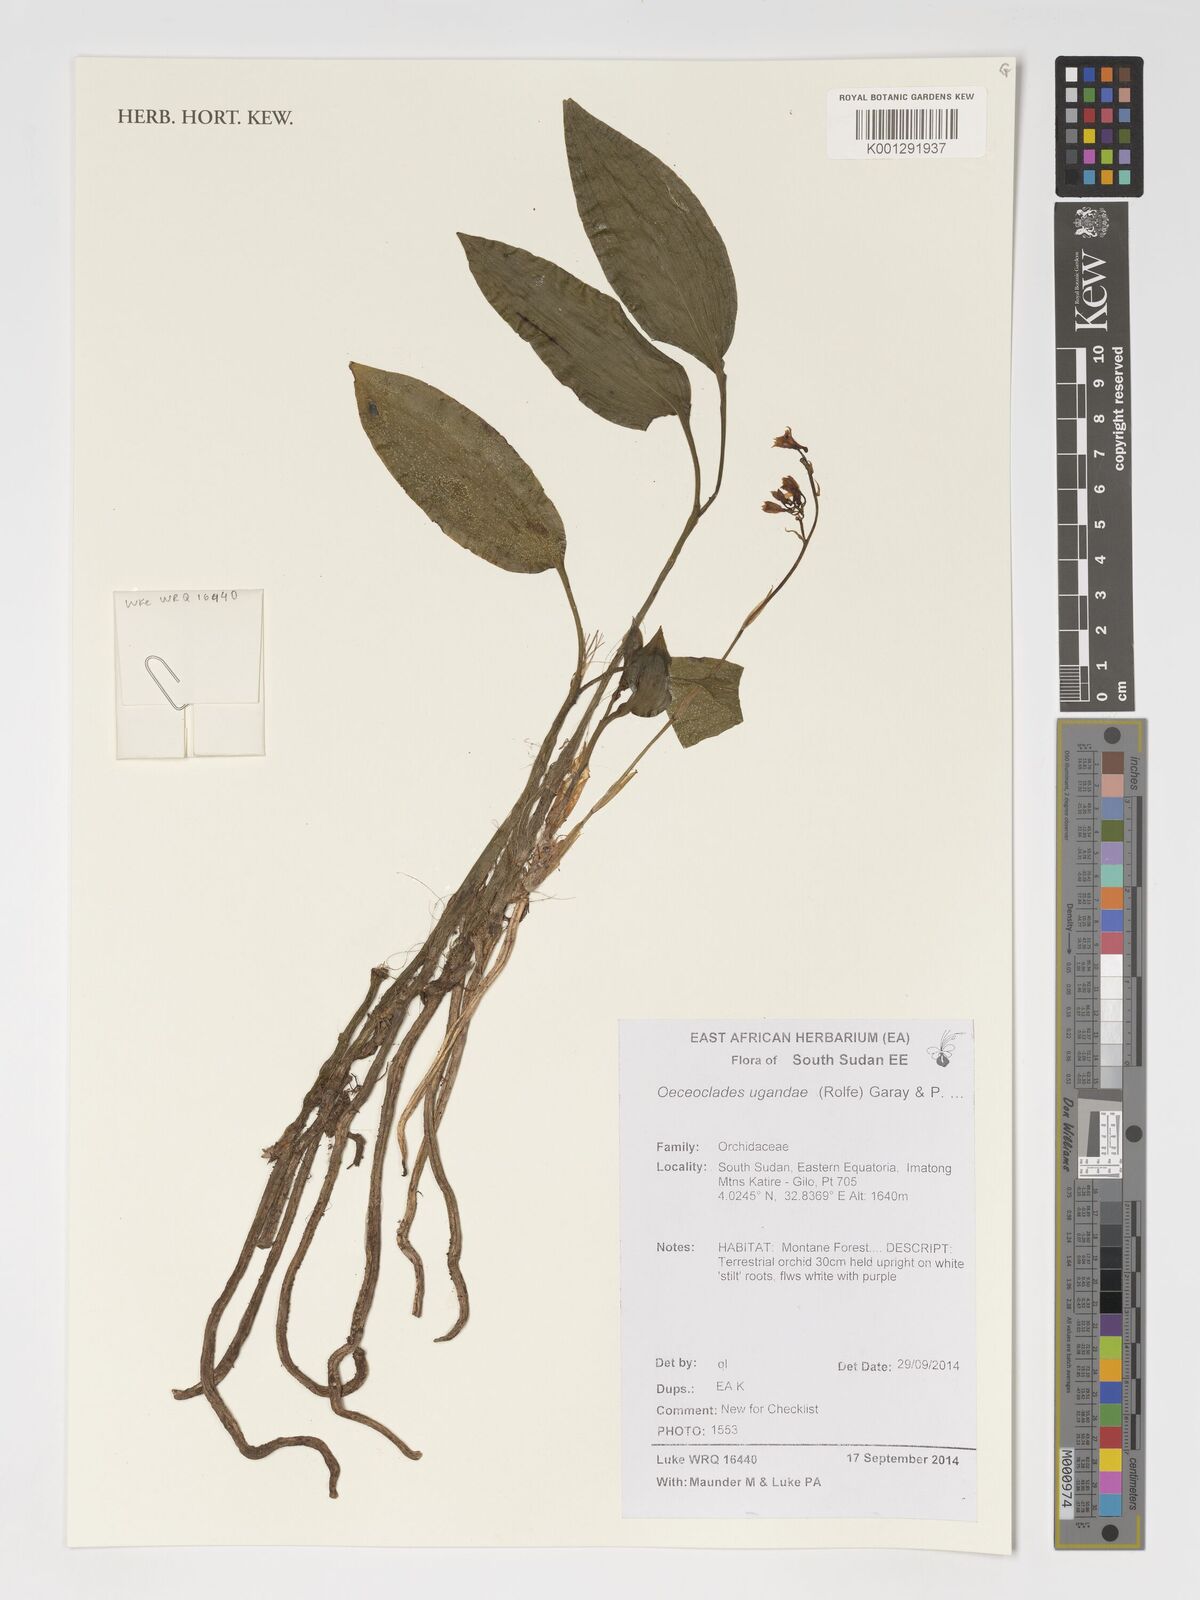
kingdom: Plantae
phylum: Tracheophyta
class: Liliopsida
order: Asparagales
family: Orchidaceae
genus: Eulophia
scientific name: Eulophia ugandae
